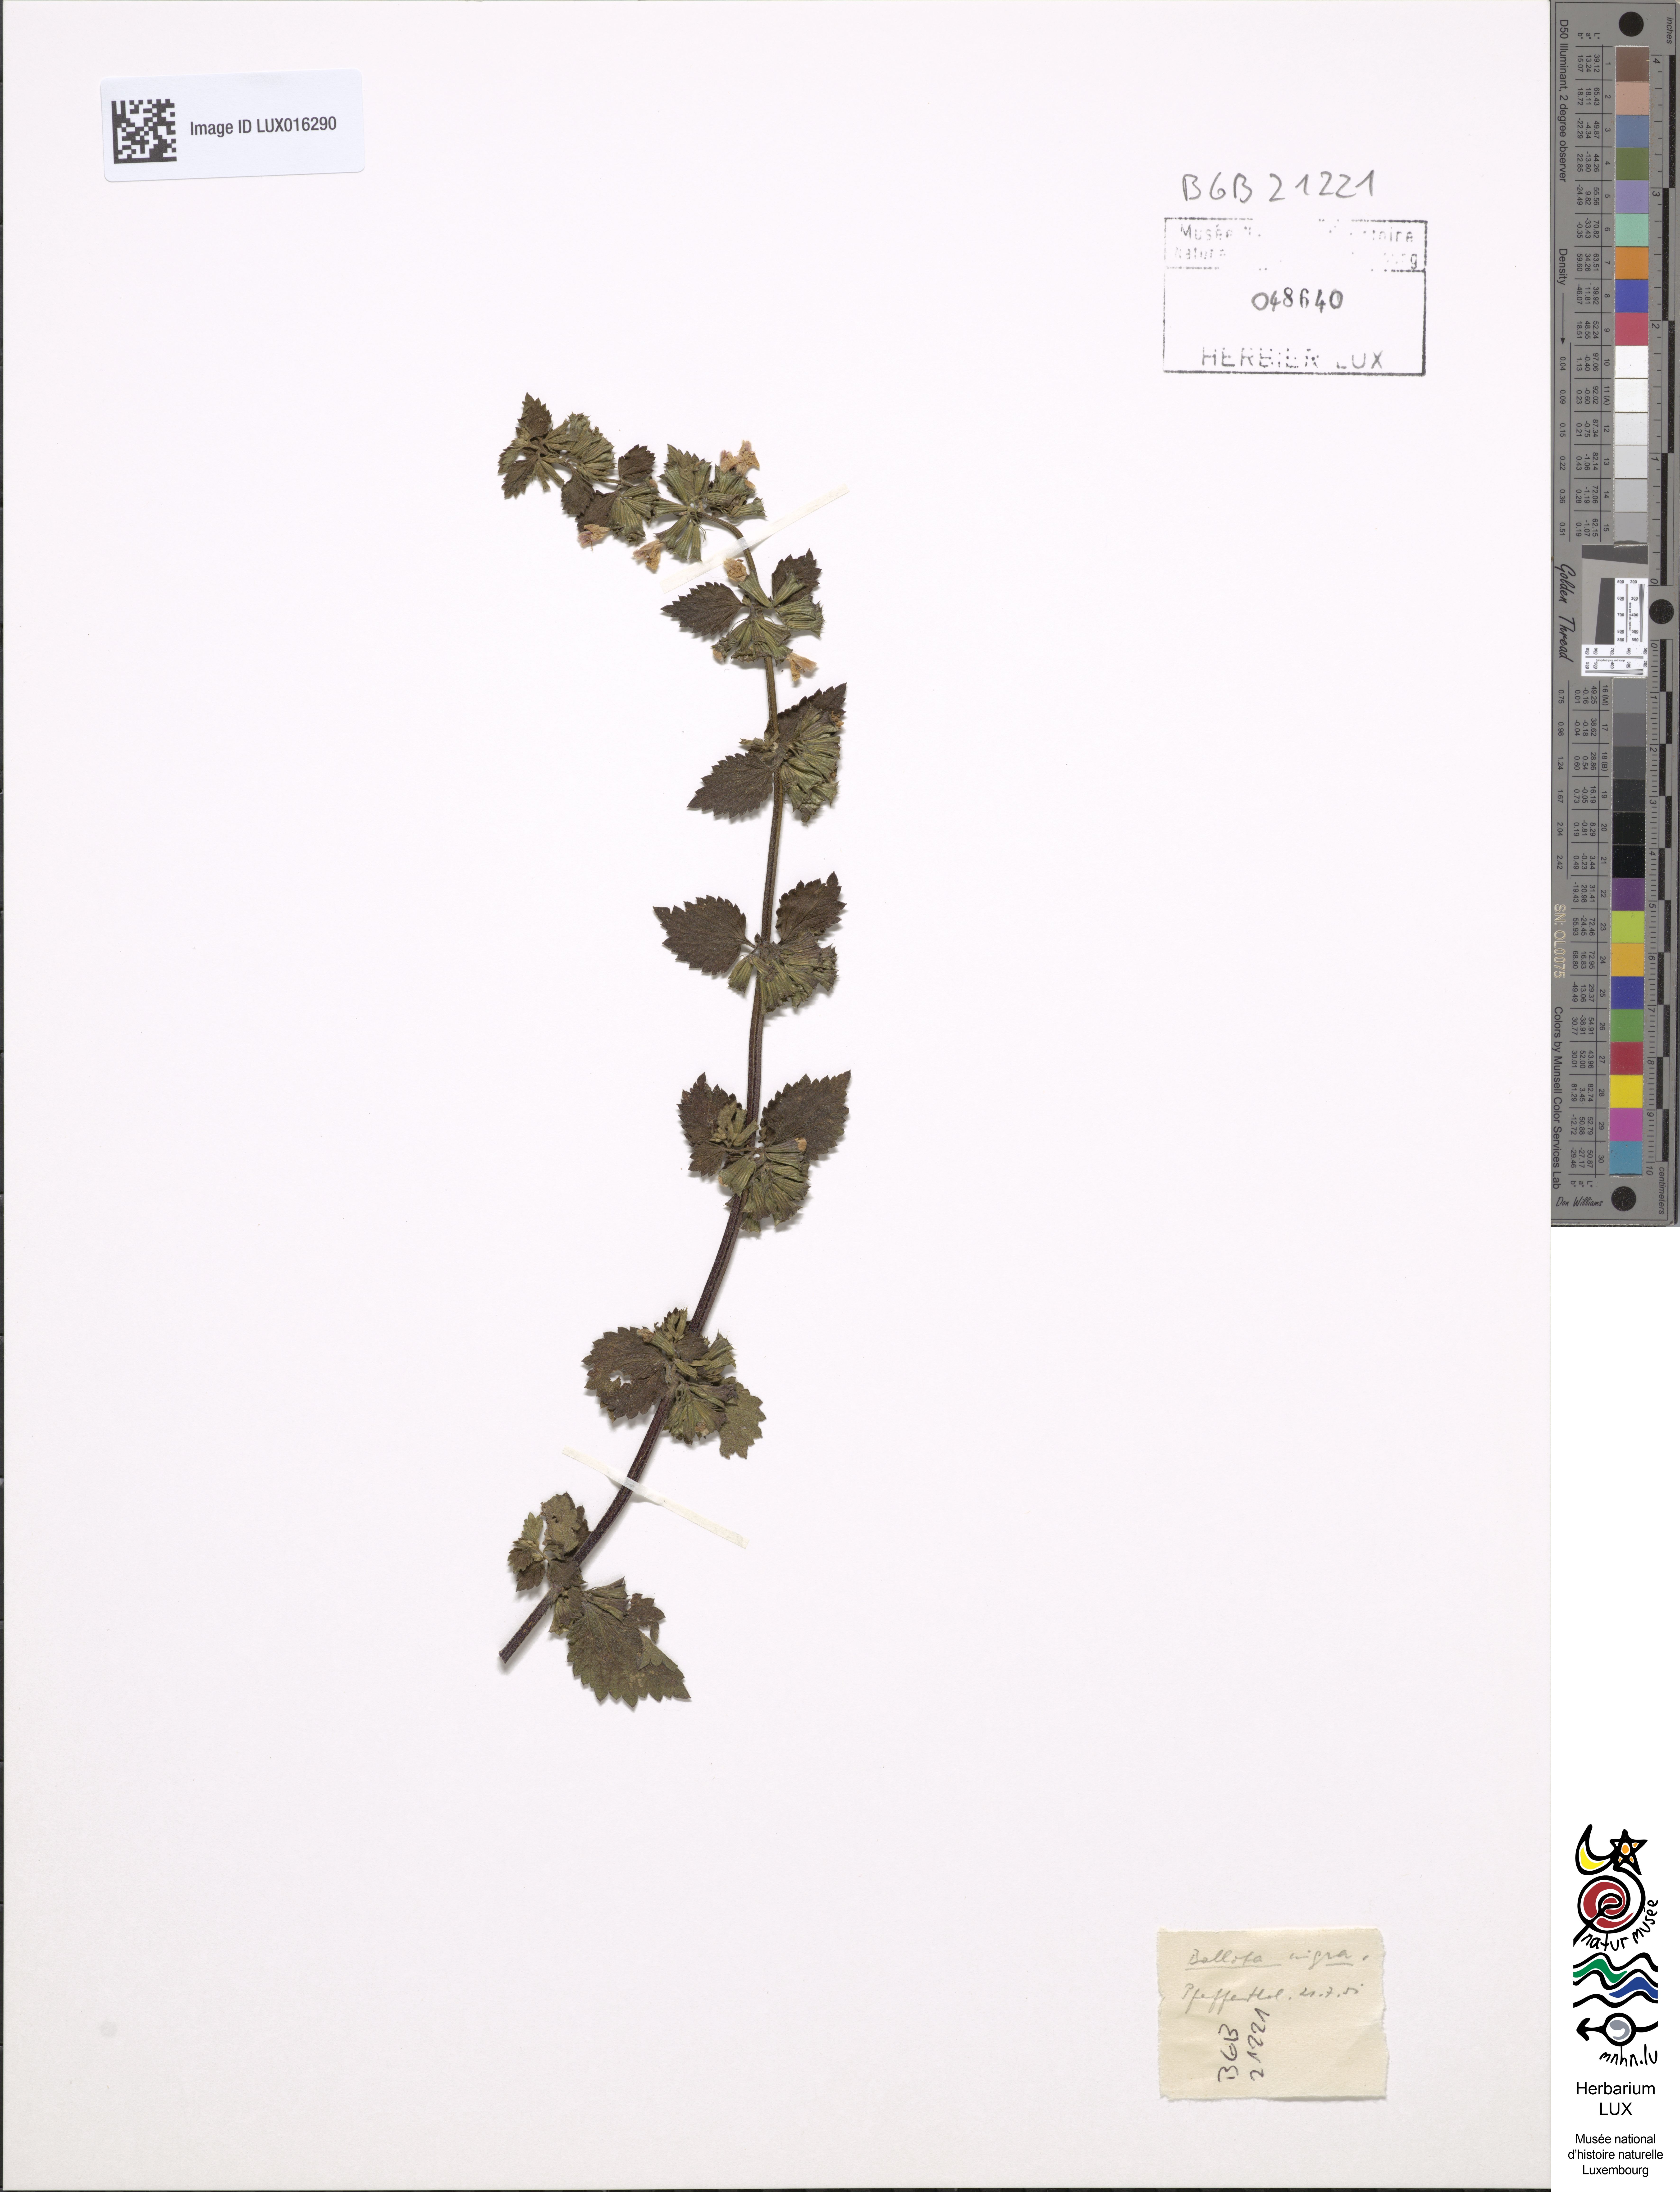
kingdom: Plantae
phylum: Tracheophyta
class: Magnoliopsida
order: Lamiales
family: Lamiaceae
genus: Ballota
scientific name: Ballota nigra
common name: Black horehound
